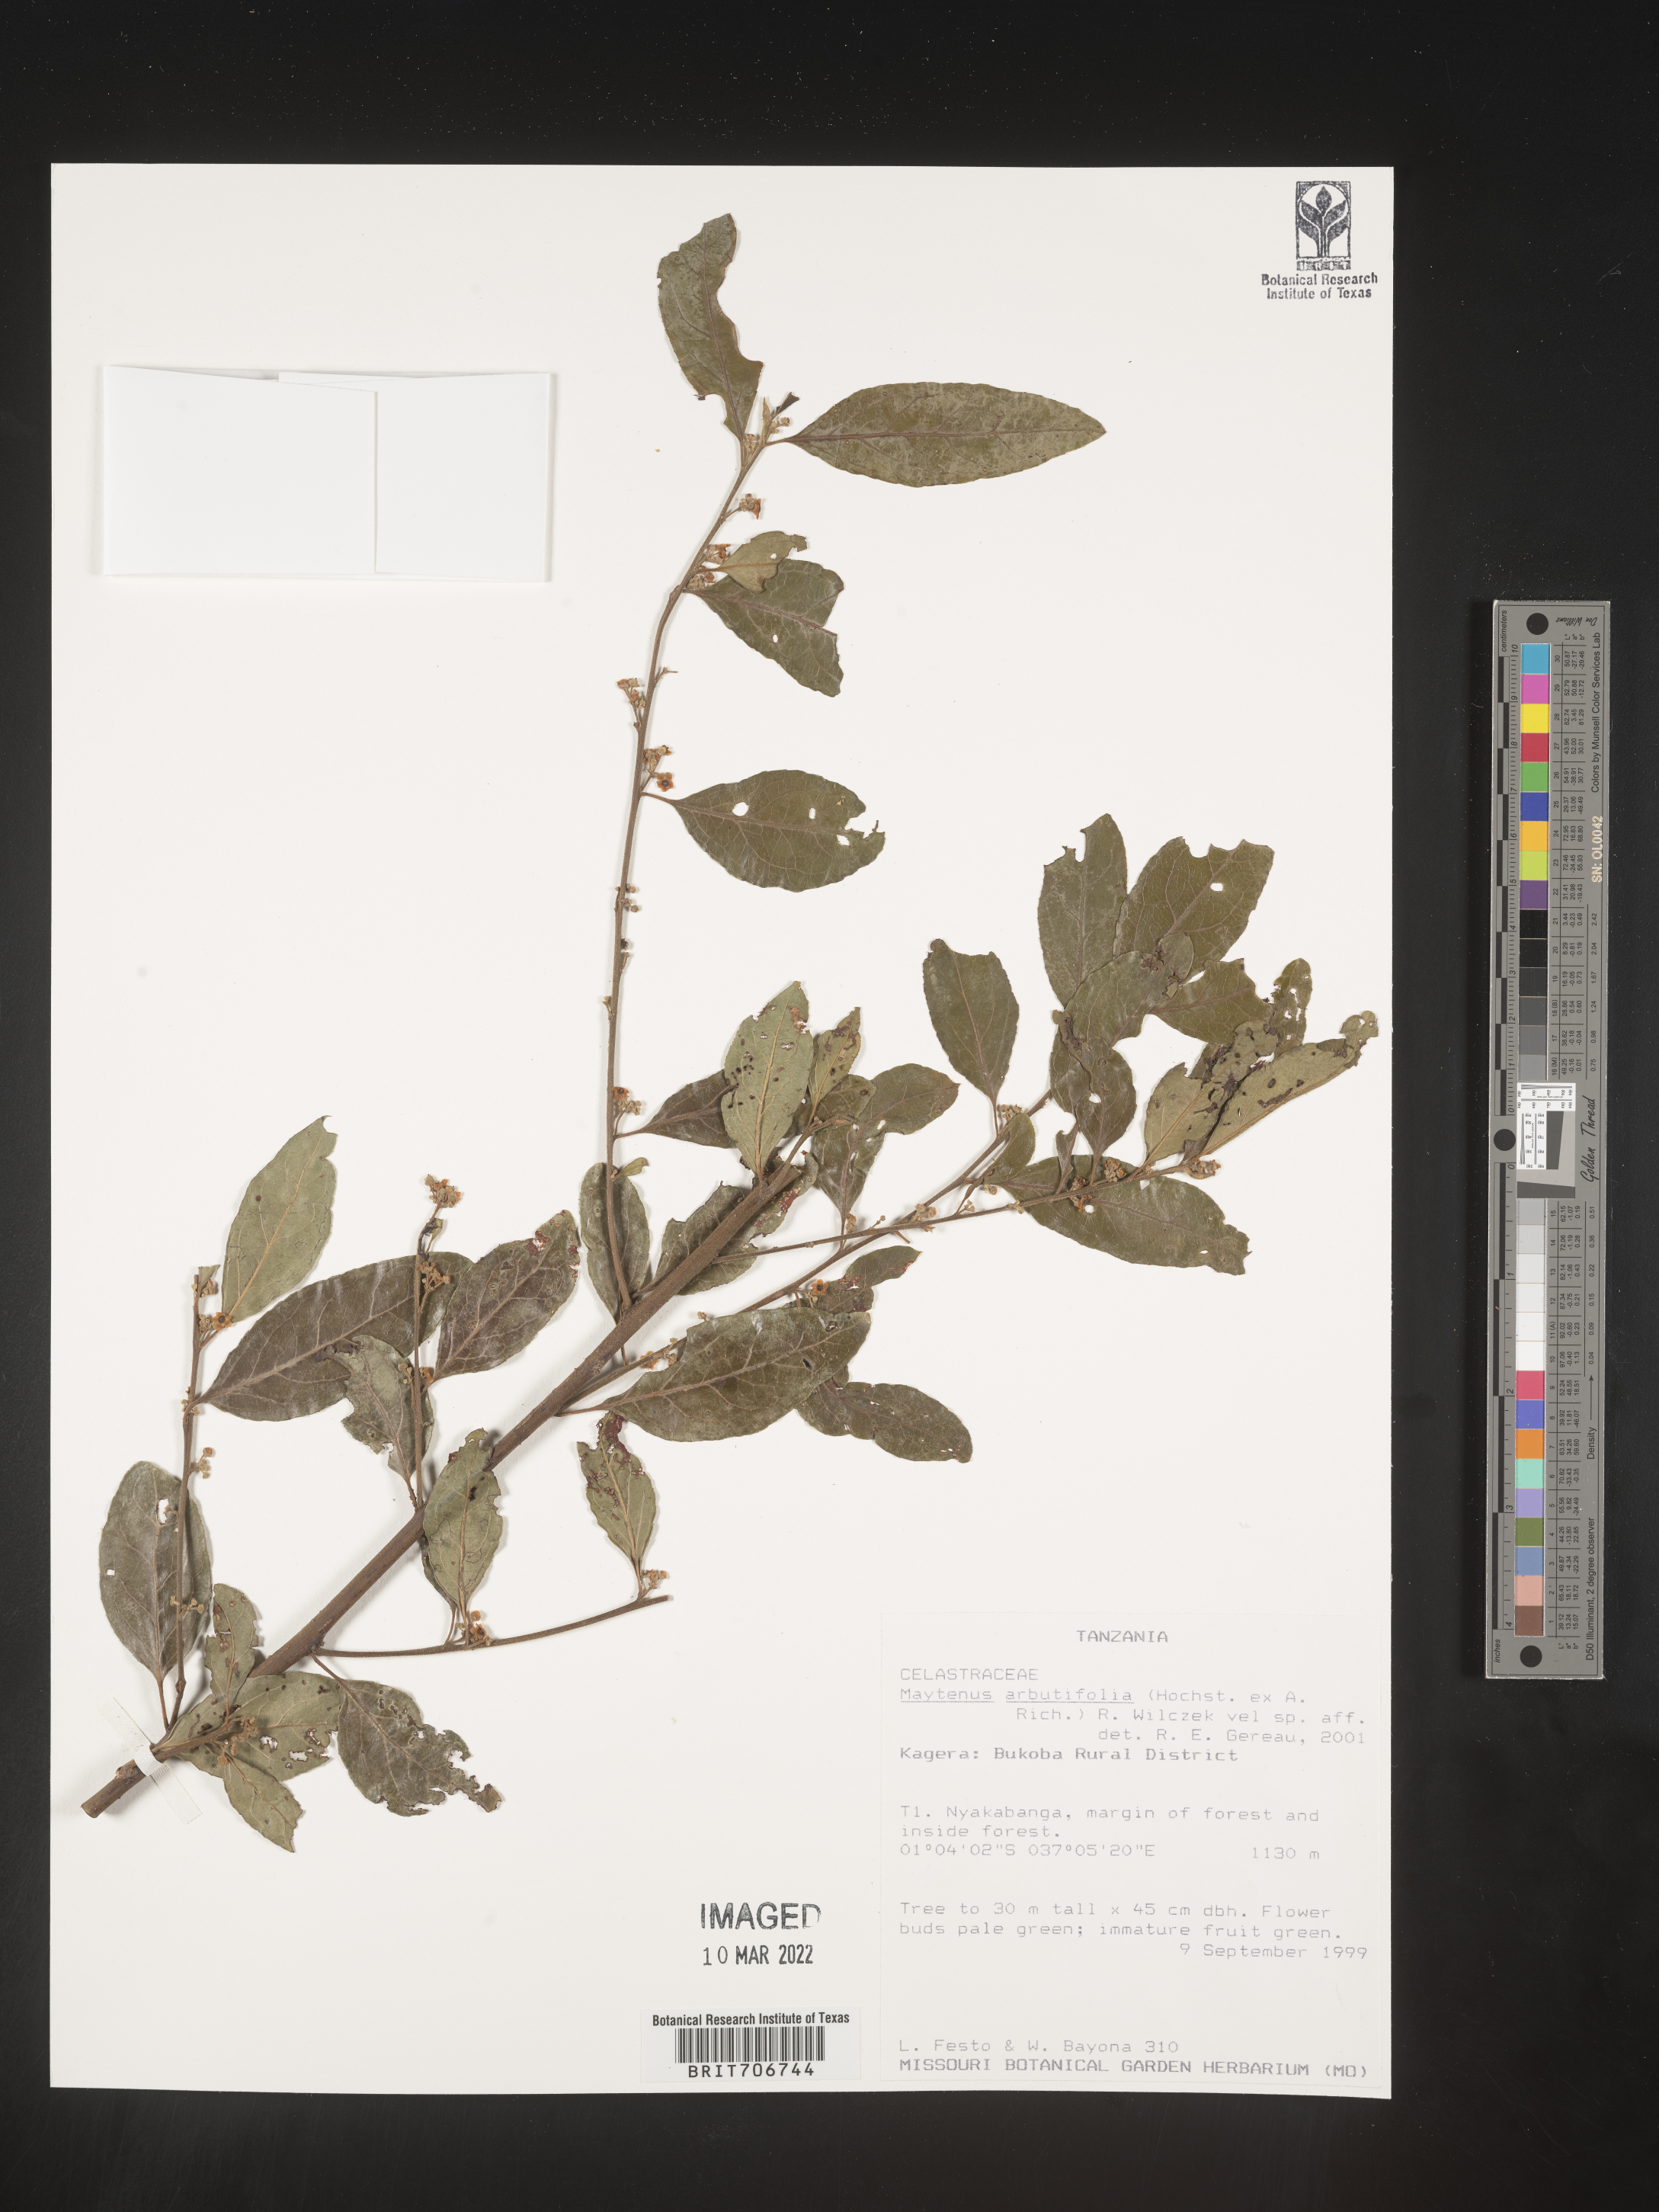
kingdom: Plantae
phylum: Tracheophyta
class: Magnoliopsida
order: Celastrales
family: Celastraceae
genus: Maytenus
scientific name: Maytenus
